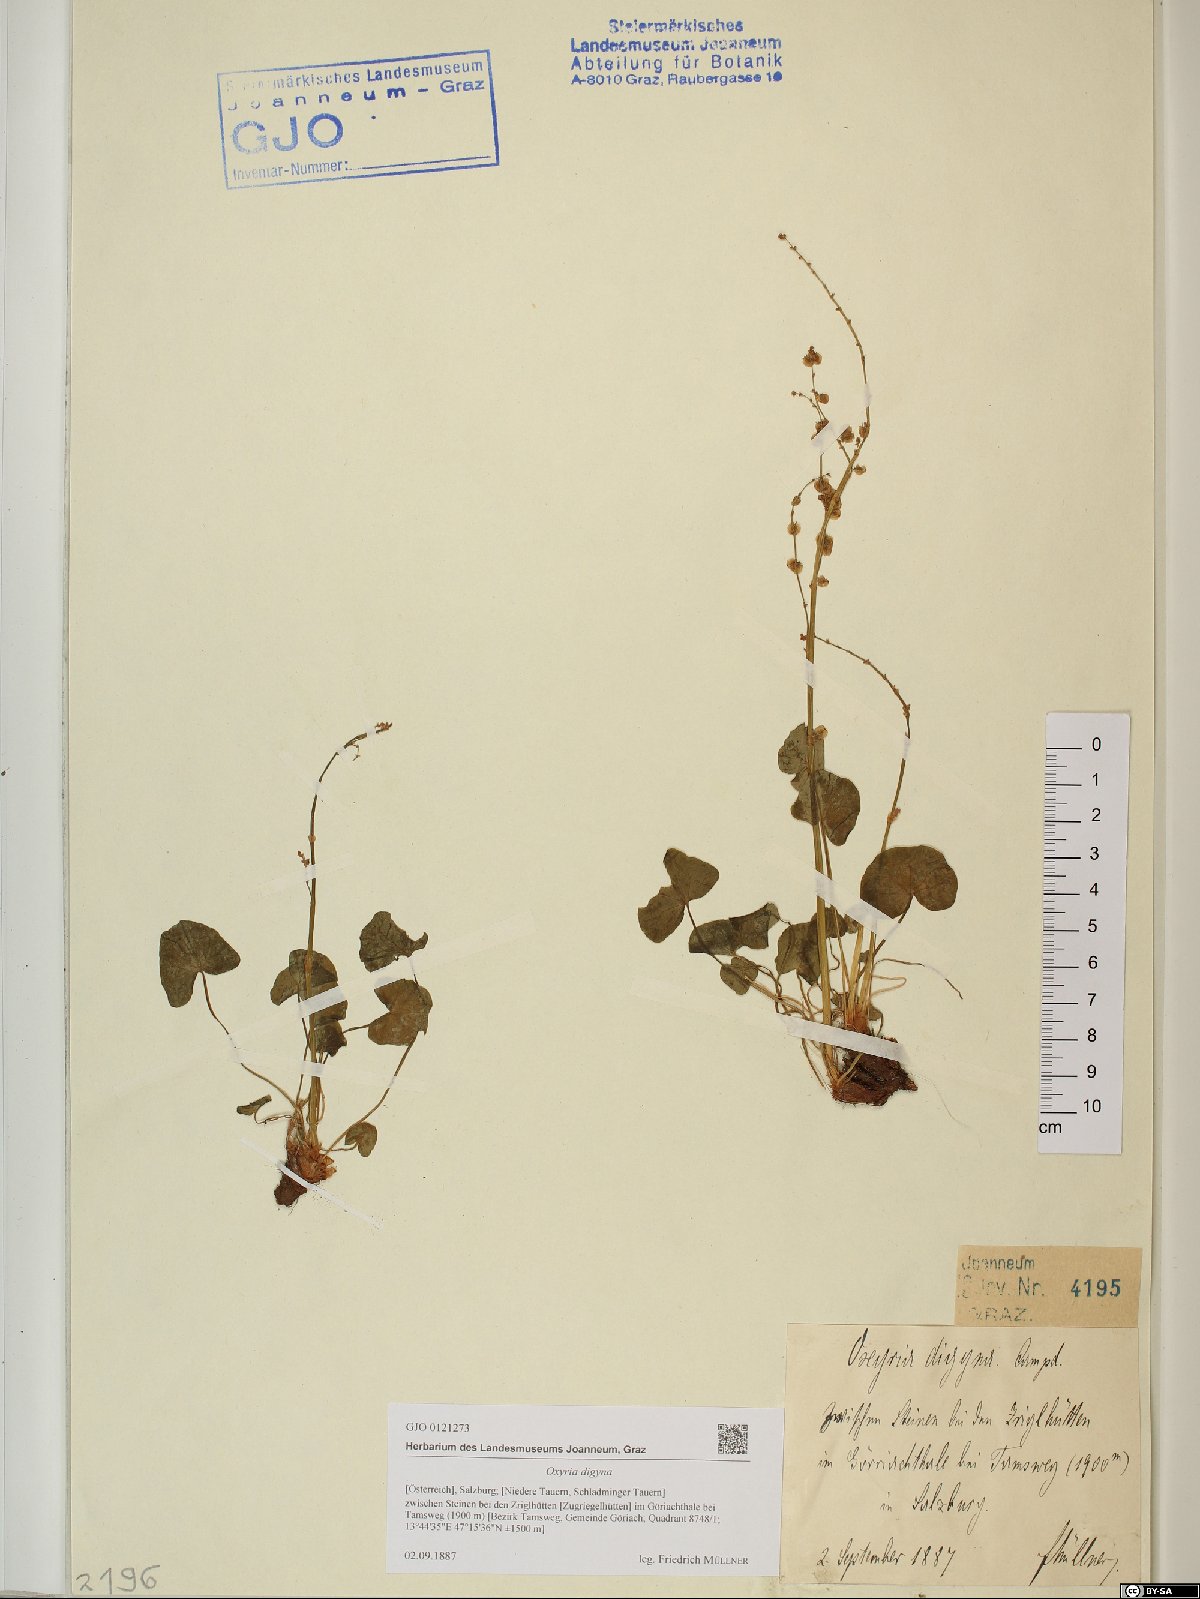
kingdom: Plantae
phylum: Tracheophyta
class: Magnoliopsida
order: Caryophyllales
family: Polygonaceae
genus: Oxyria
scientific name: Oxyria digyna
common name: Alpine mountain-sorrel
